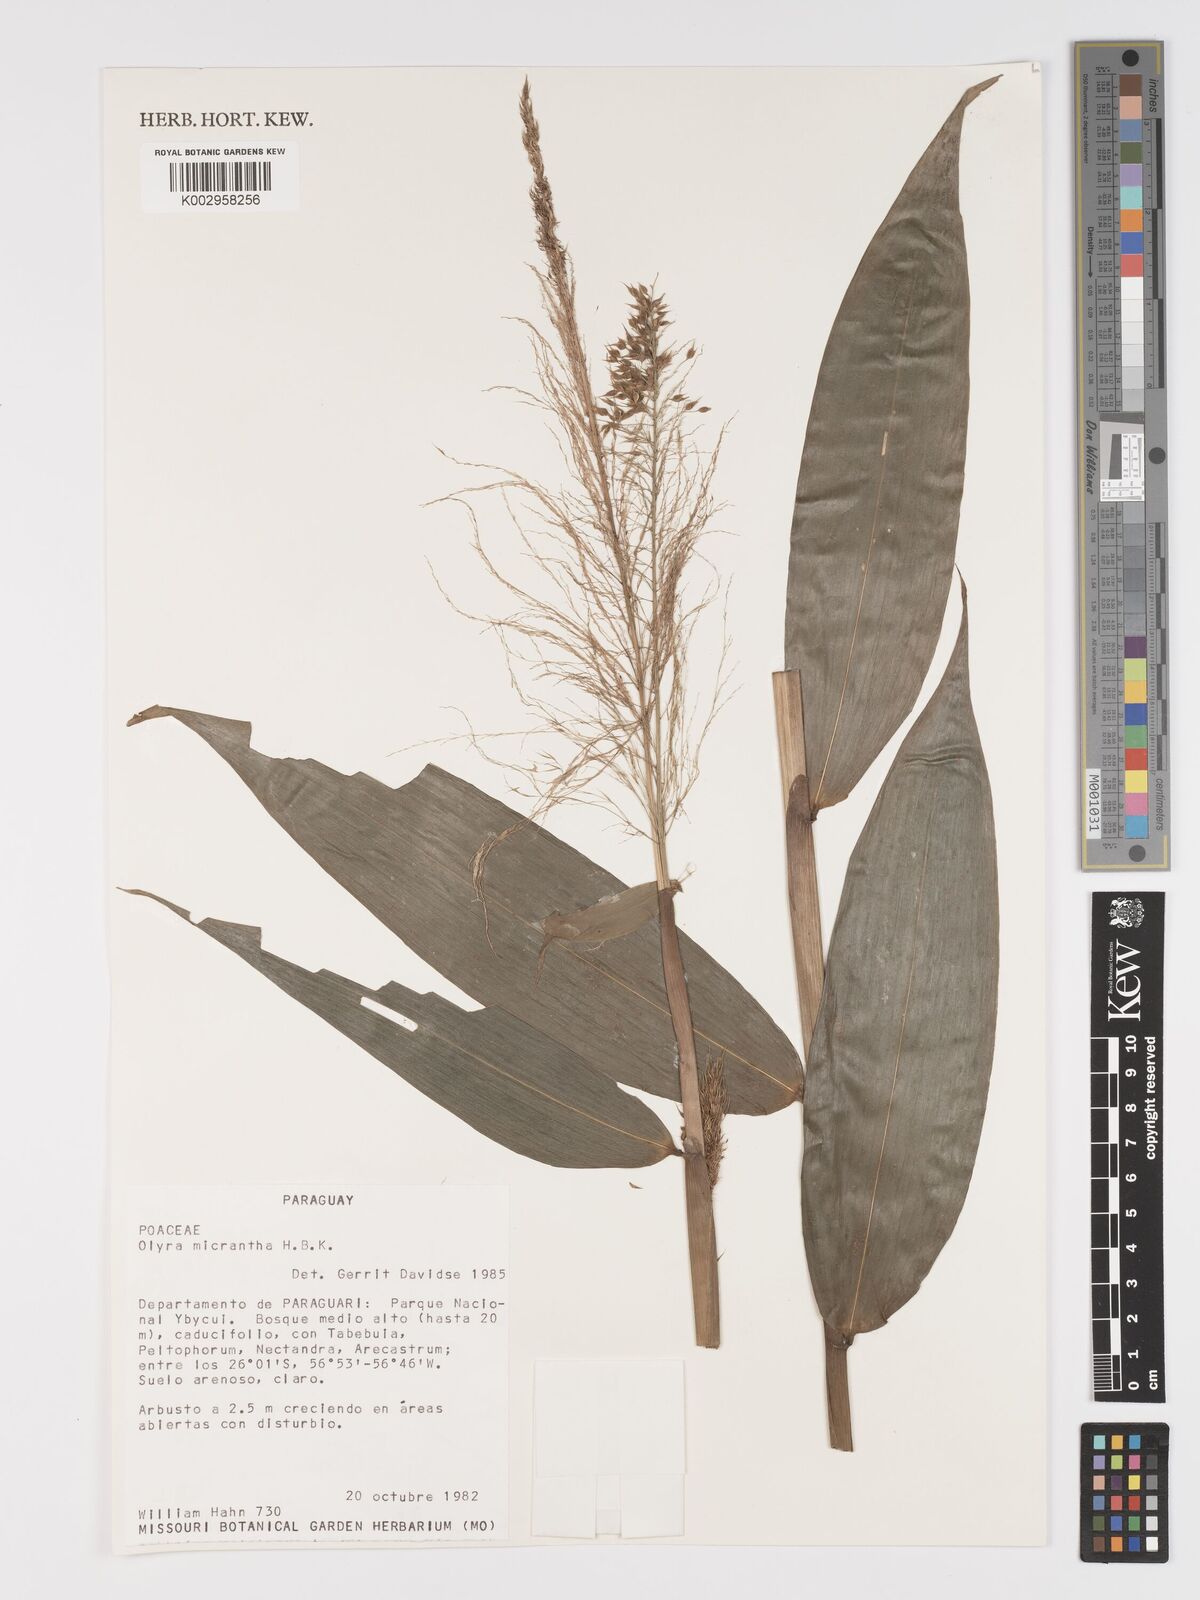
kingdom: Plantae
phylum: Tracheophyta
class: Liliopsida
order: Poales
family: Poaceae
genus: Taquara
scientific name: Taquara micrantha
